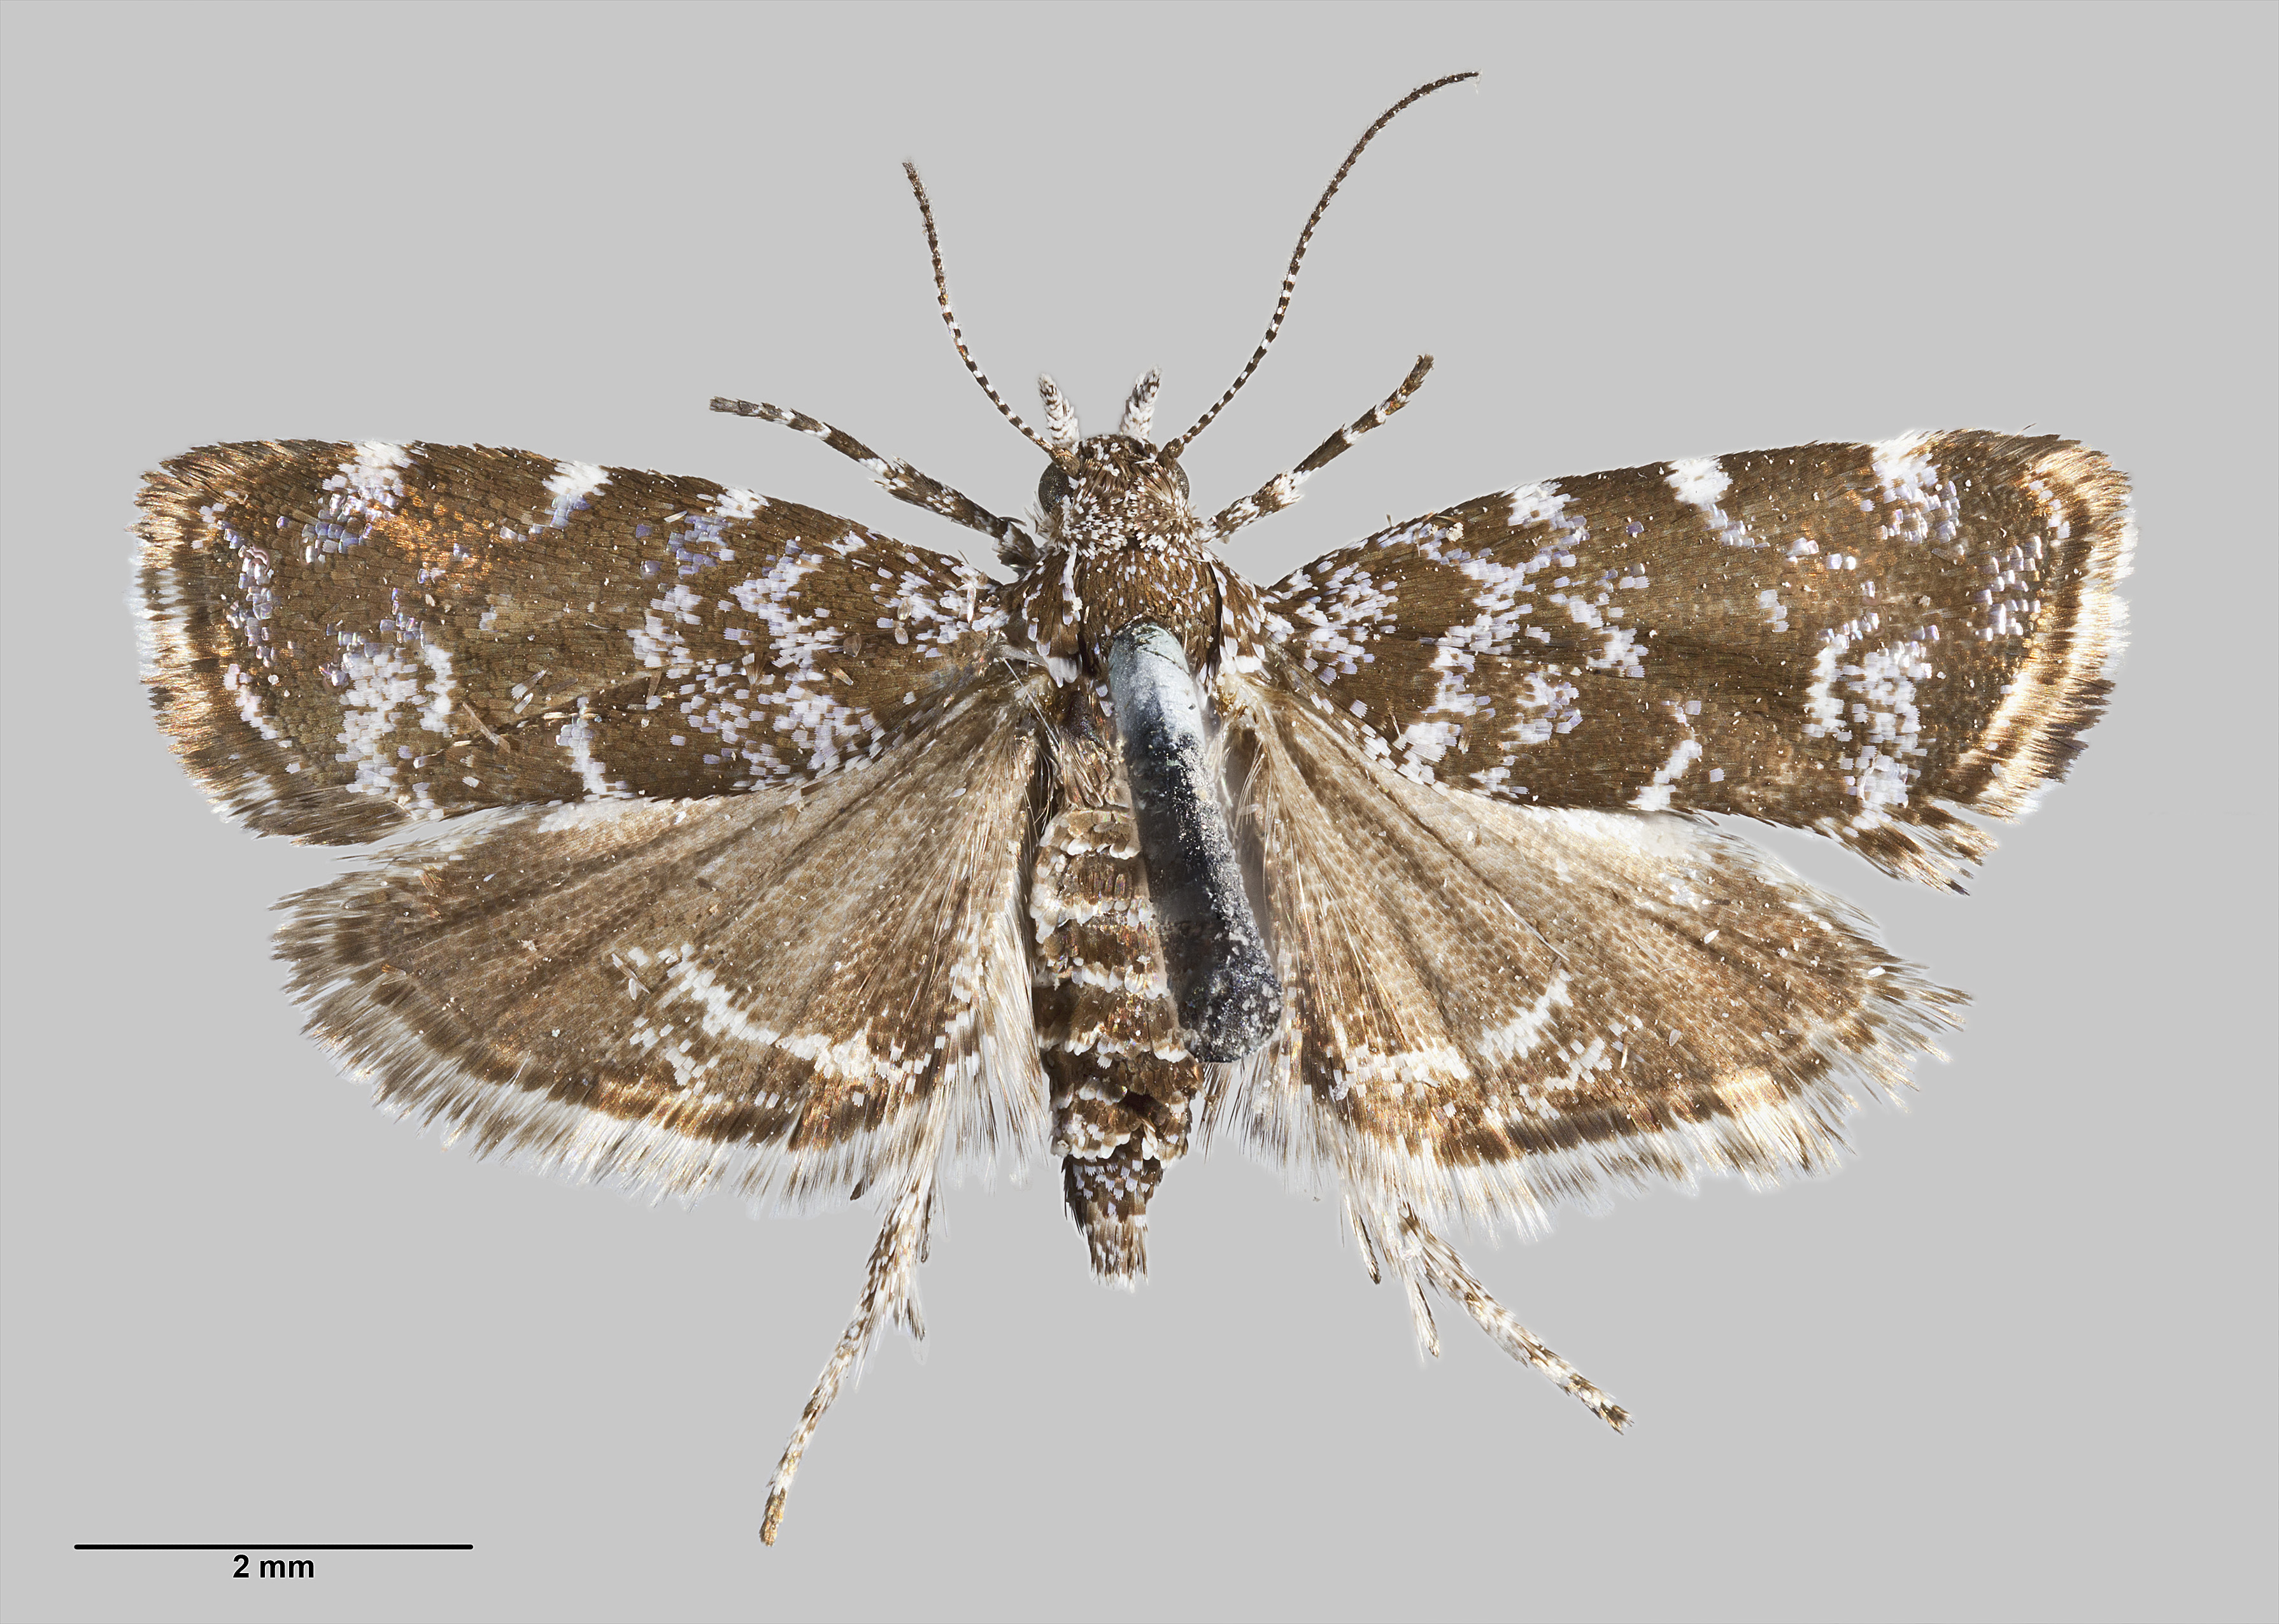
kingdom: Animalia
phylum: Arthropoda
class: Insecta
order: Lepidoptera
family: Choreutidae
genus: Asterivora
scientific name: Asterivora chatuidea
